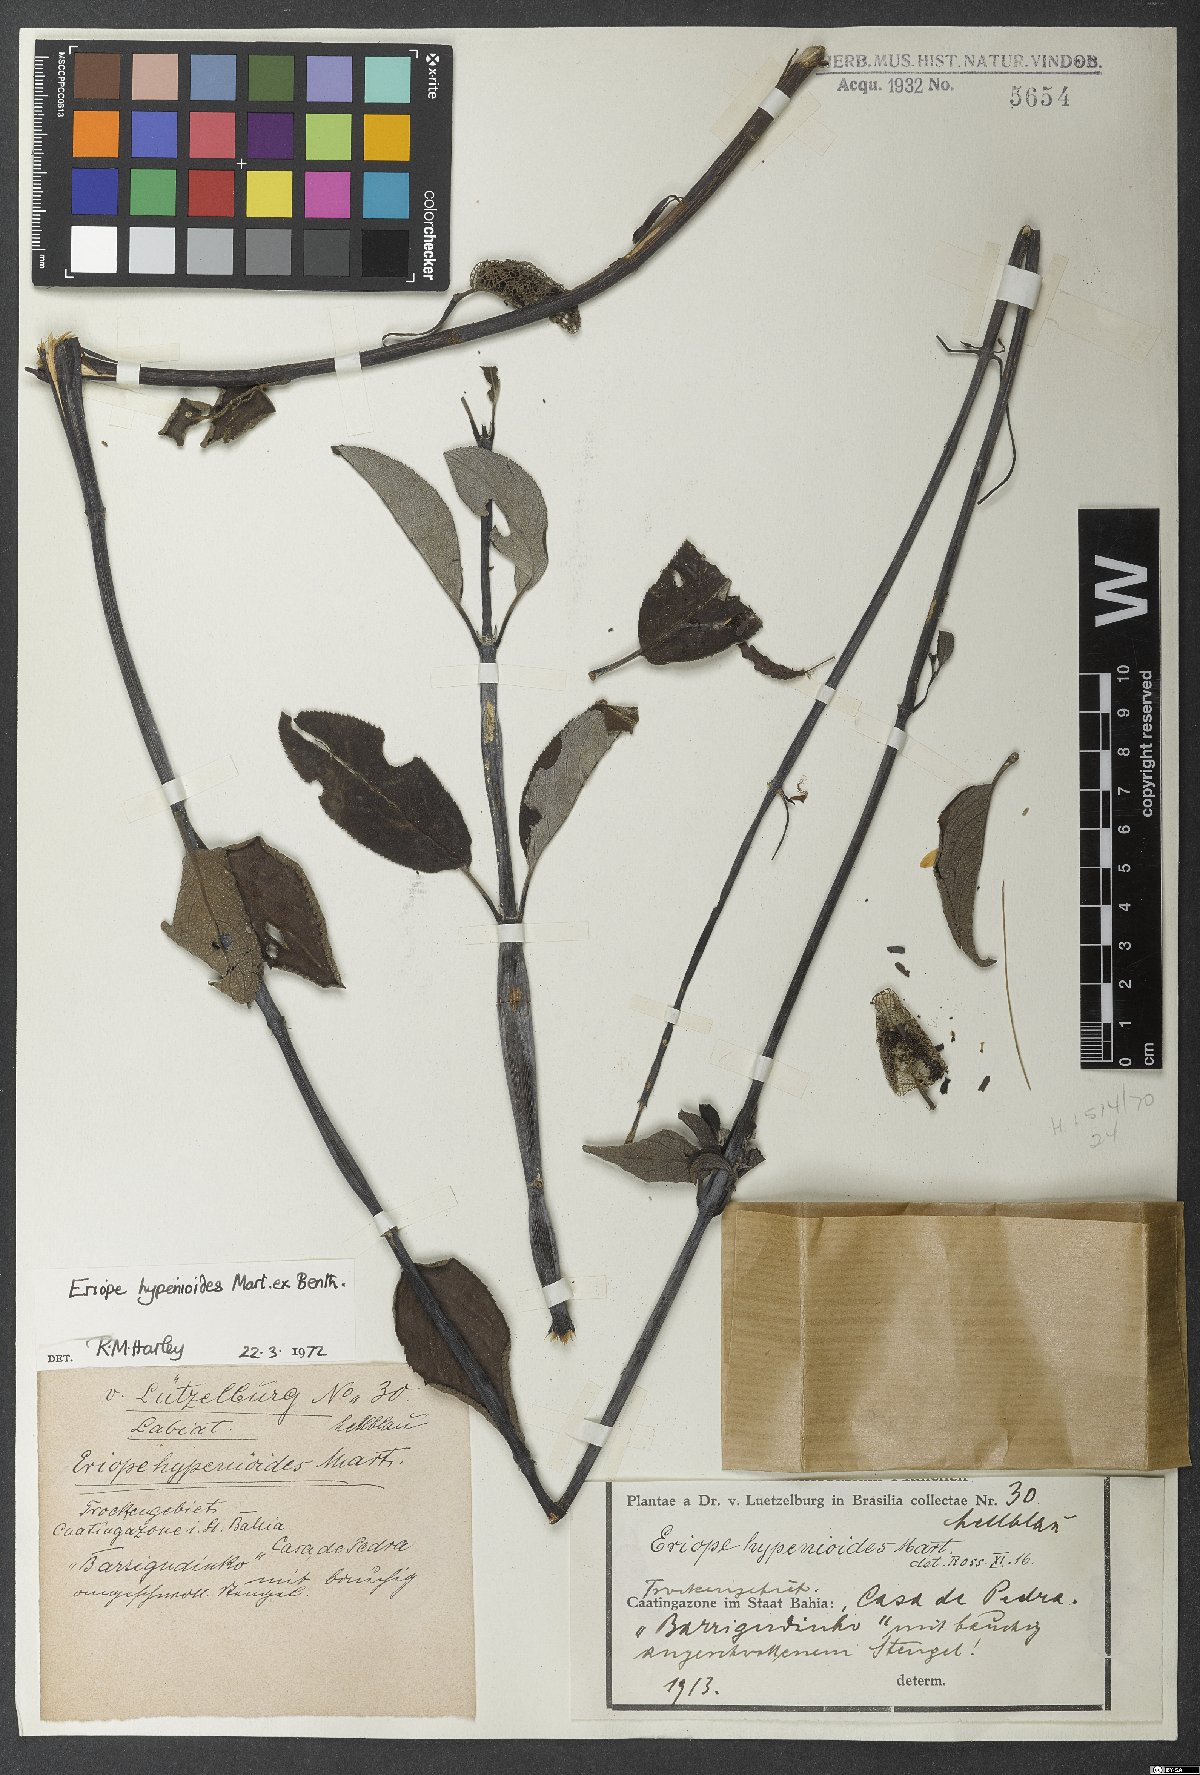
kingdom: Plantae
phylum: Tracheophyta
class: Magnoliopsida
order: Lamiales
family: Lamiaceae
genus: Eriope
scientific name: Eriope hypenioides
